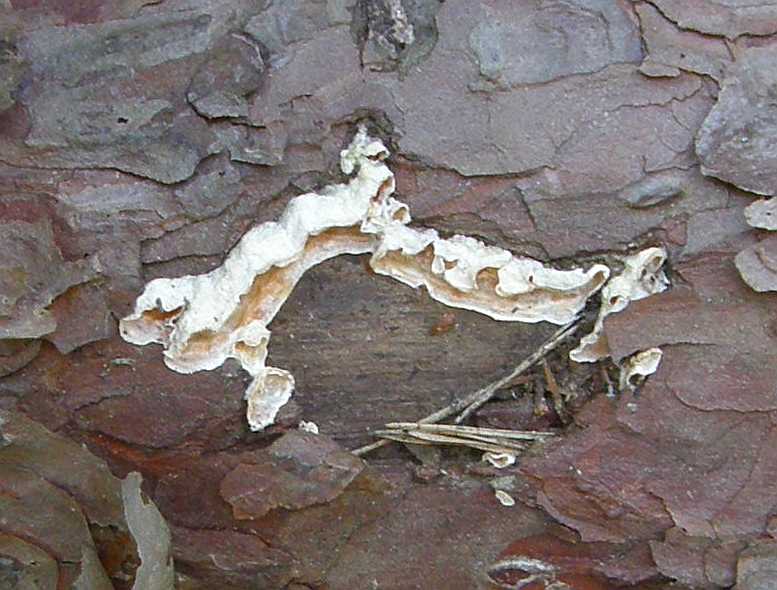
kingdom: Fungi
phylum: Basidiomycota
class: Agaricomycetes
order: Polyporales
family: Incrustoporiaceae
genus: Skeletocutis
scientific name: Skeletocutis amorpha
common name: orange krystalporesvamp
